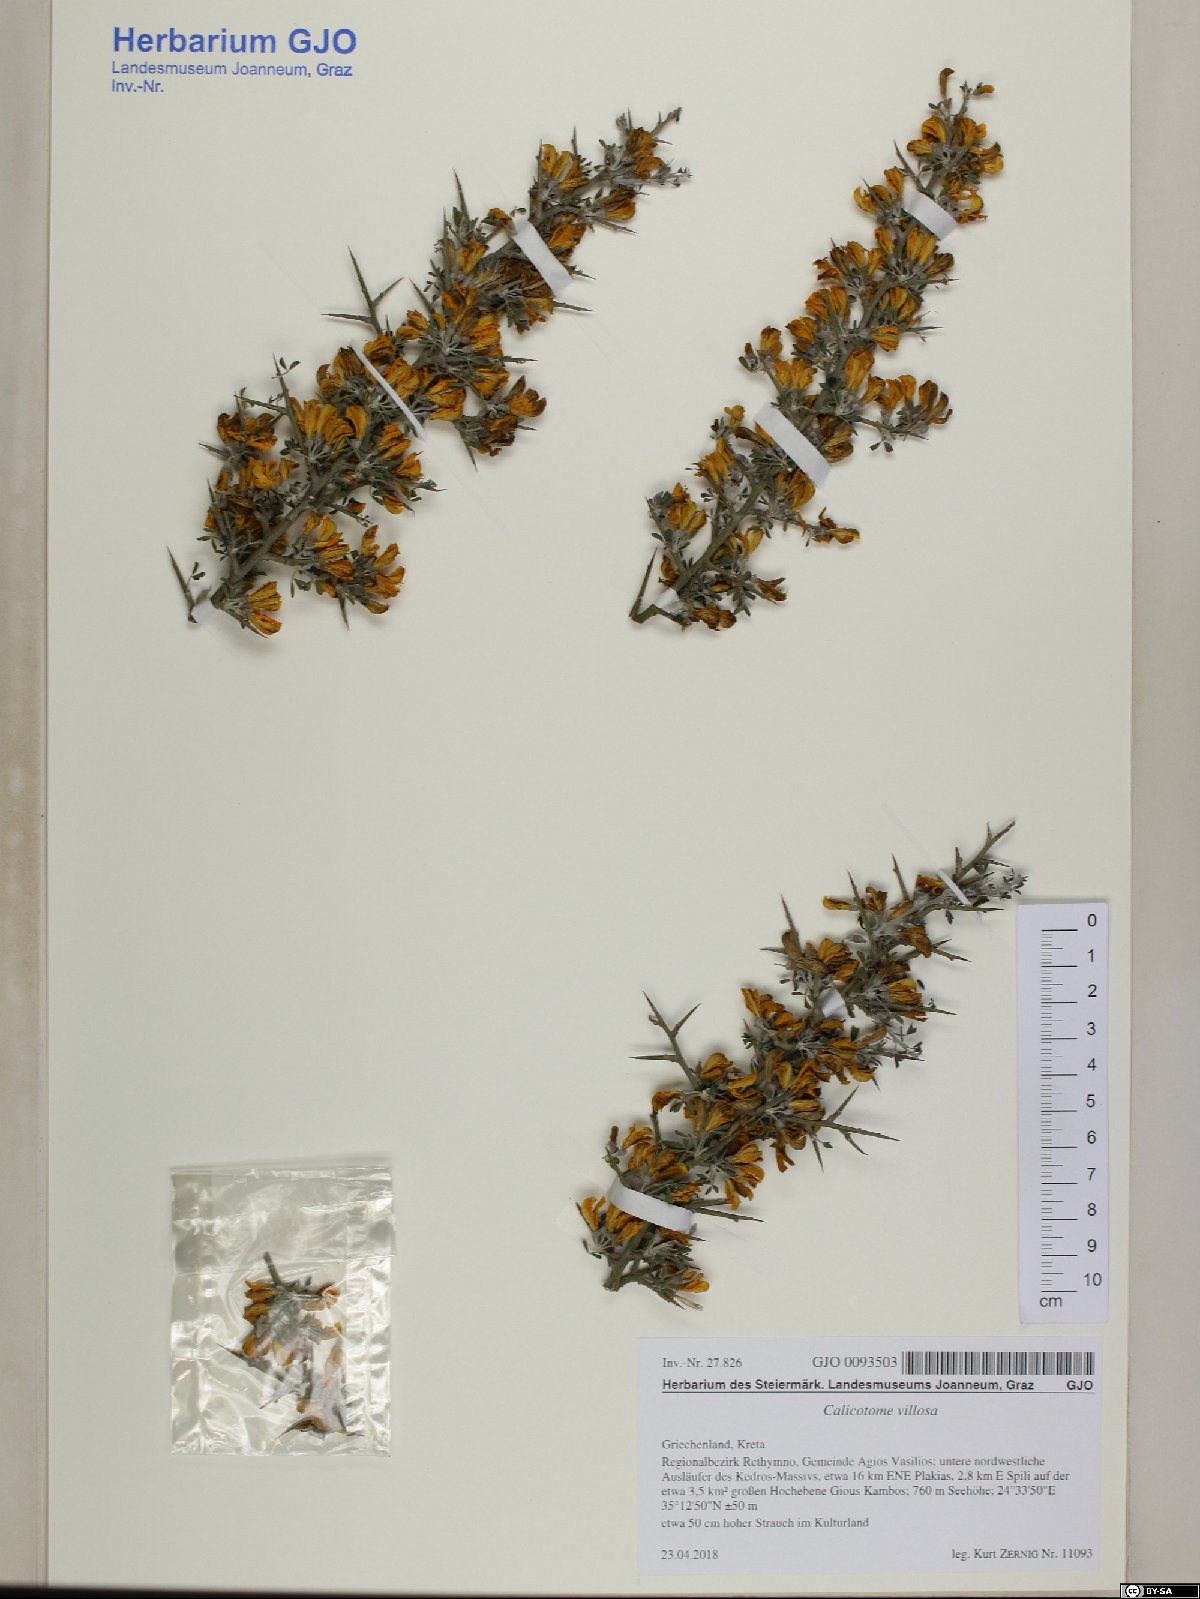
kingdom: Plantae
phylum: Tracheophyta
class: Magnoliopsida
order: Fabales
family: Fabaceae
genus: Calicotome
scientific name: Calicotome villosa
